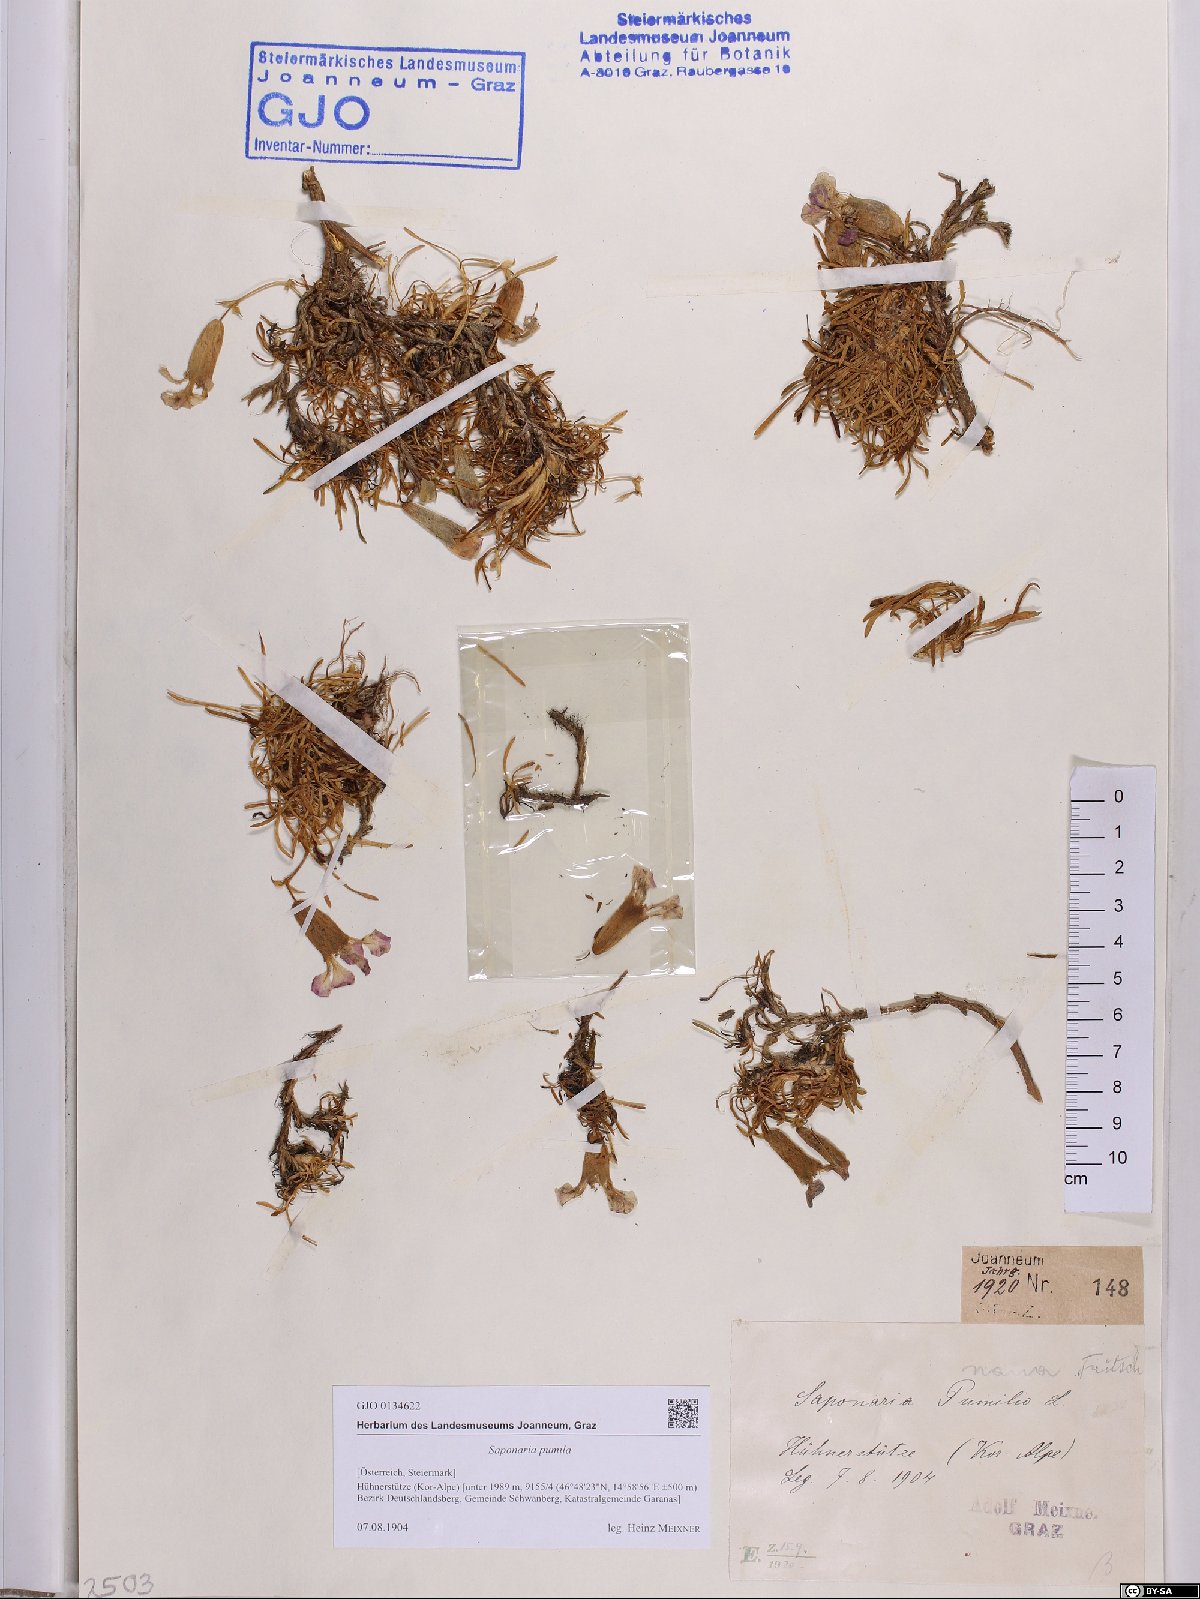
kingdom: Plantae
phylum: Tracheophyta
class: Magnoliopsida
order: Caryophyllales
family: Caryophyllaceae
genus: Saponaria
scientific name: Saponaria pumila
